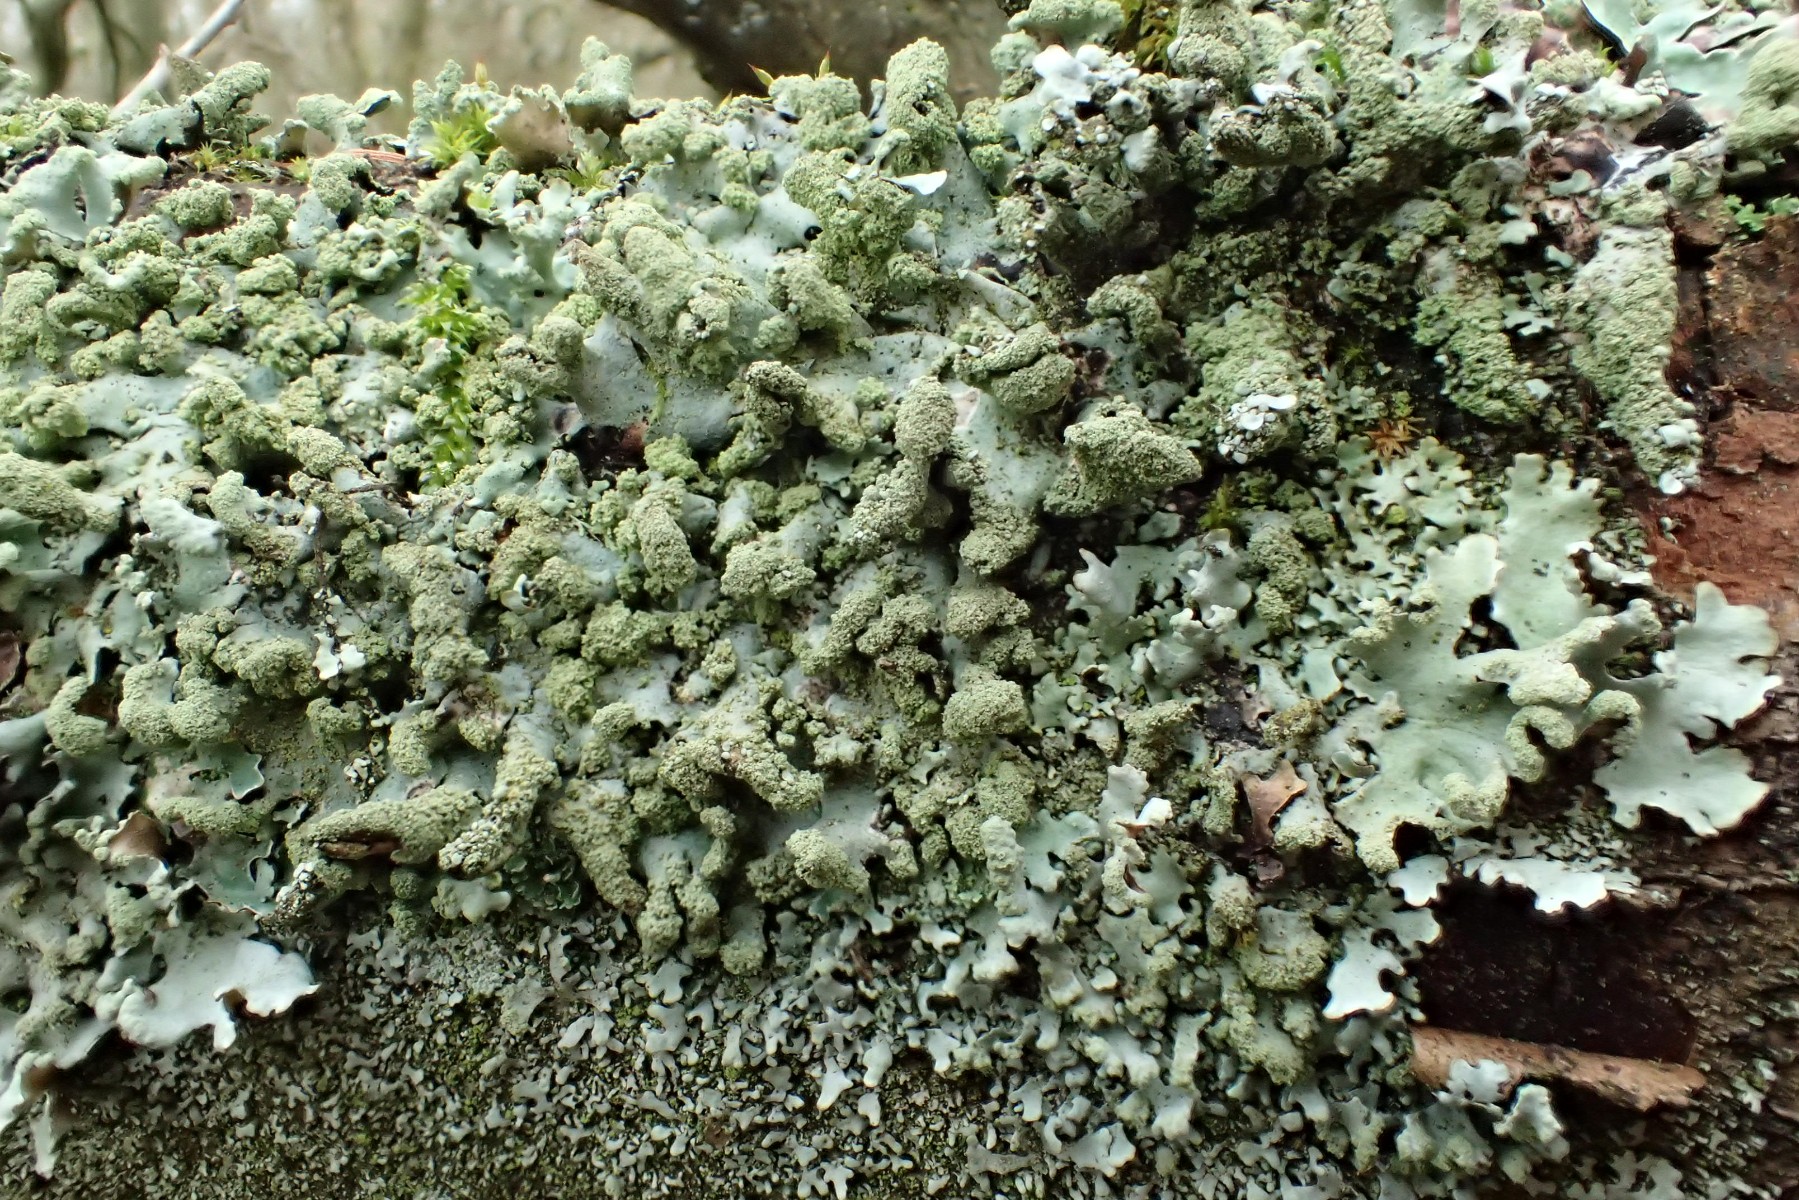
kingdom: Fungi
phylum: Ascomycota
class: Lecanoromycetes
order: Lecanorales
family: Parmeliaceae
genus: Hypotrachyna
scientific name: Hypotrachyna afrorevoluta
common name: kyst-skållav
